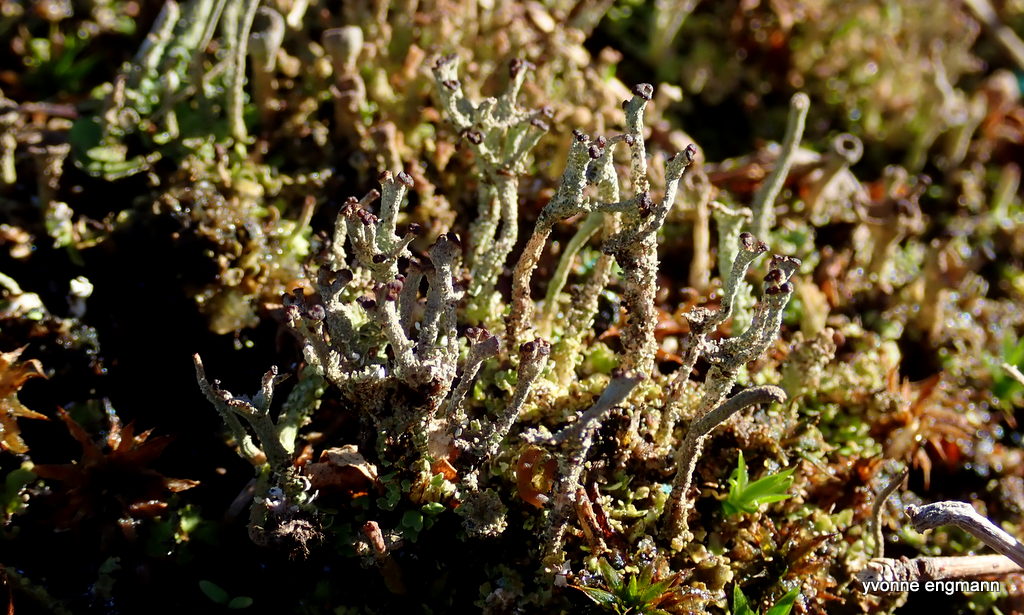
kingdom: Fungi
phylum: Ascomycota
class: Lecanoromycetes
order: Lecanorales
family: Cladoniaceae
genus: Cladonia
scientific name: Cladonia ramulosa
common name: kliddet bægerlav
